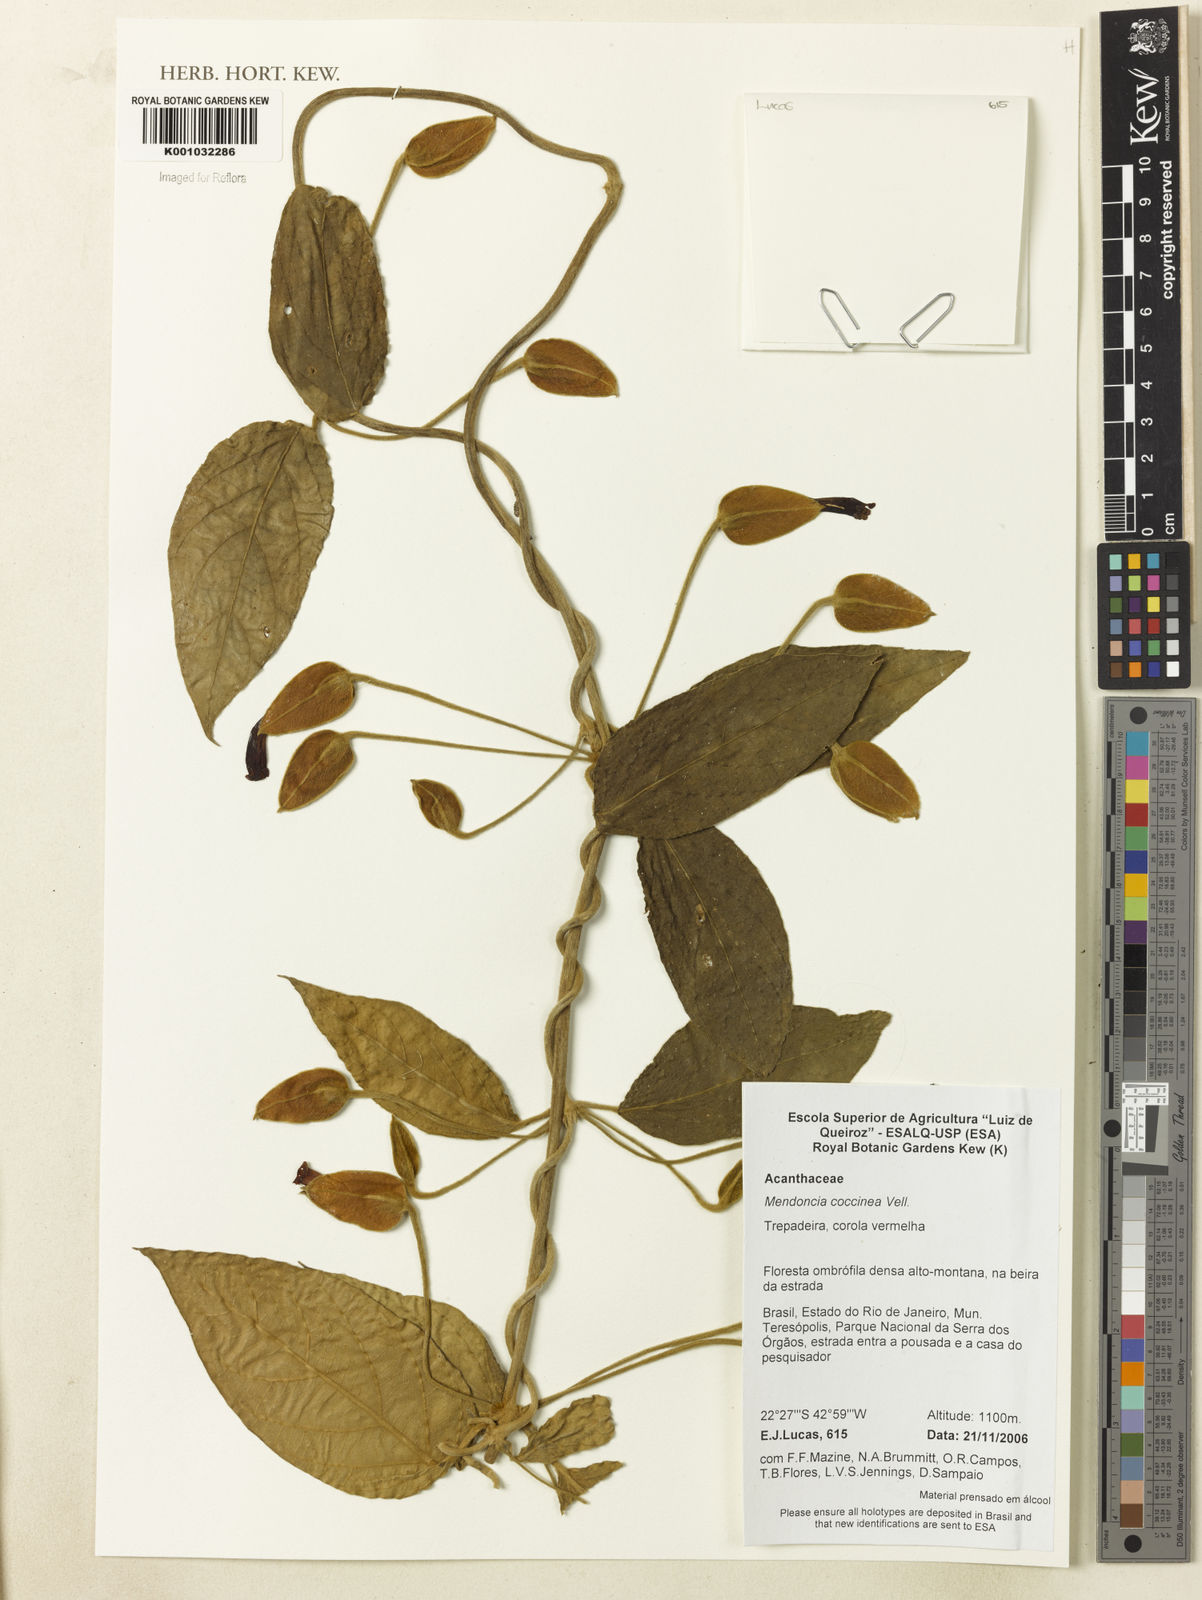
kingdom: Plantae
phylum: Tracheophyta
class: Magnoliopsida
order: Lamiales
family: Acanthaceae
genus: Mendoncia
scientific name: Mendoncia coccinea
